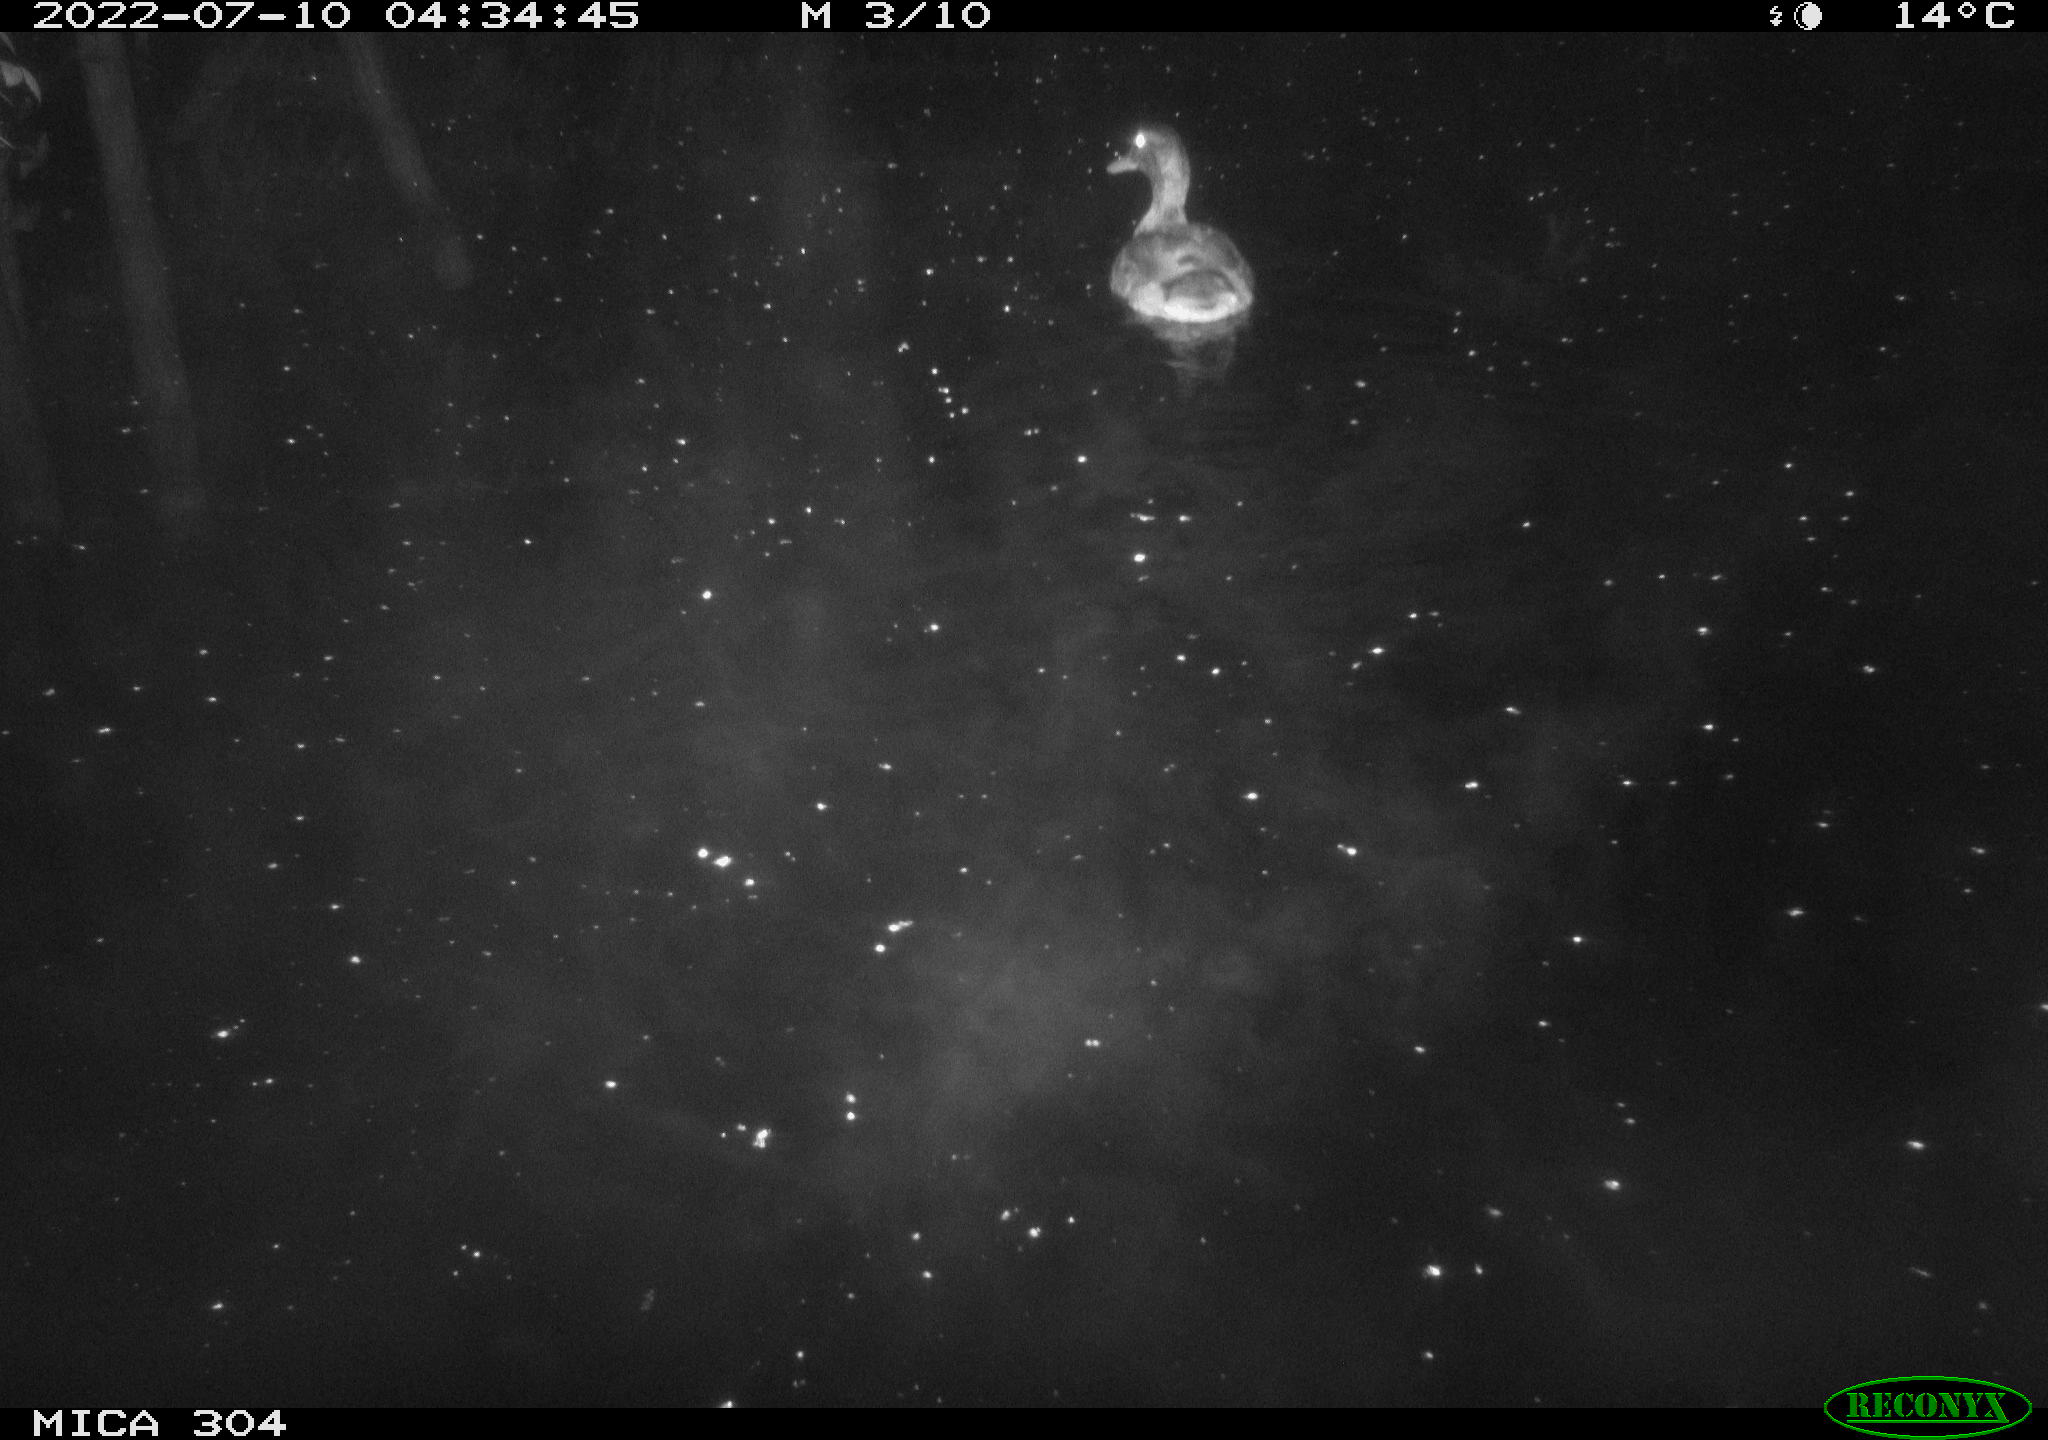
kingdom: Animalia
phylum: Chordata
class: Aves
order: Anseriformes
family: Anatidae
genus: Mareca
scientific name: Mareca strepera
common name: Gadwall
